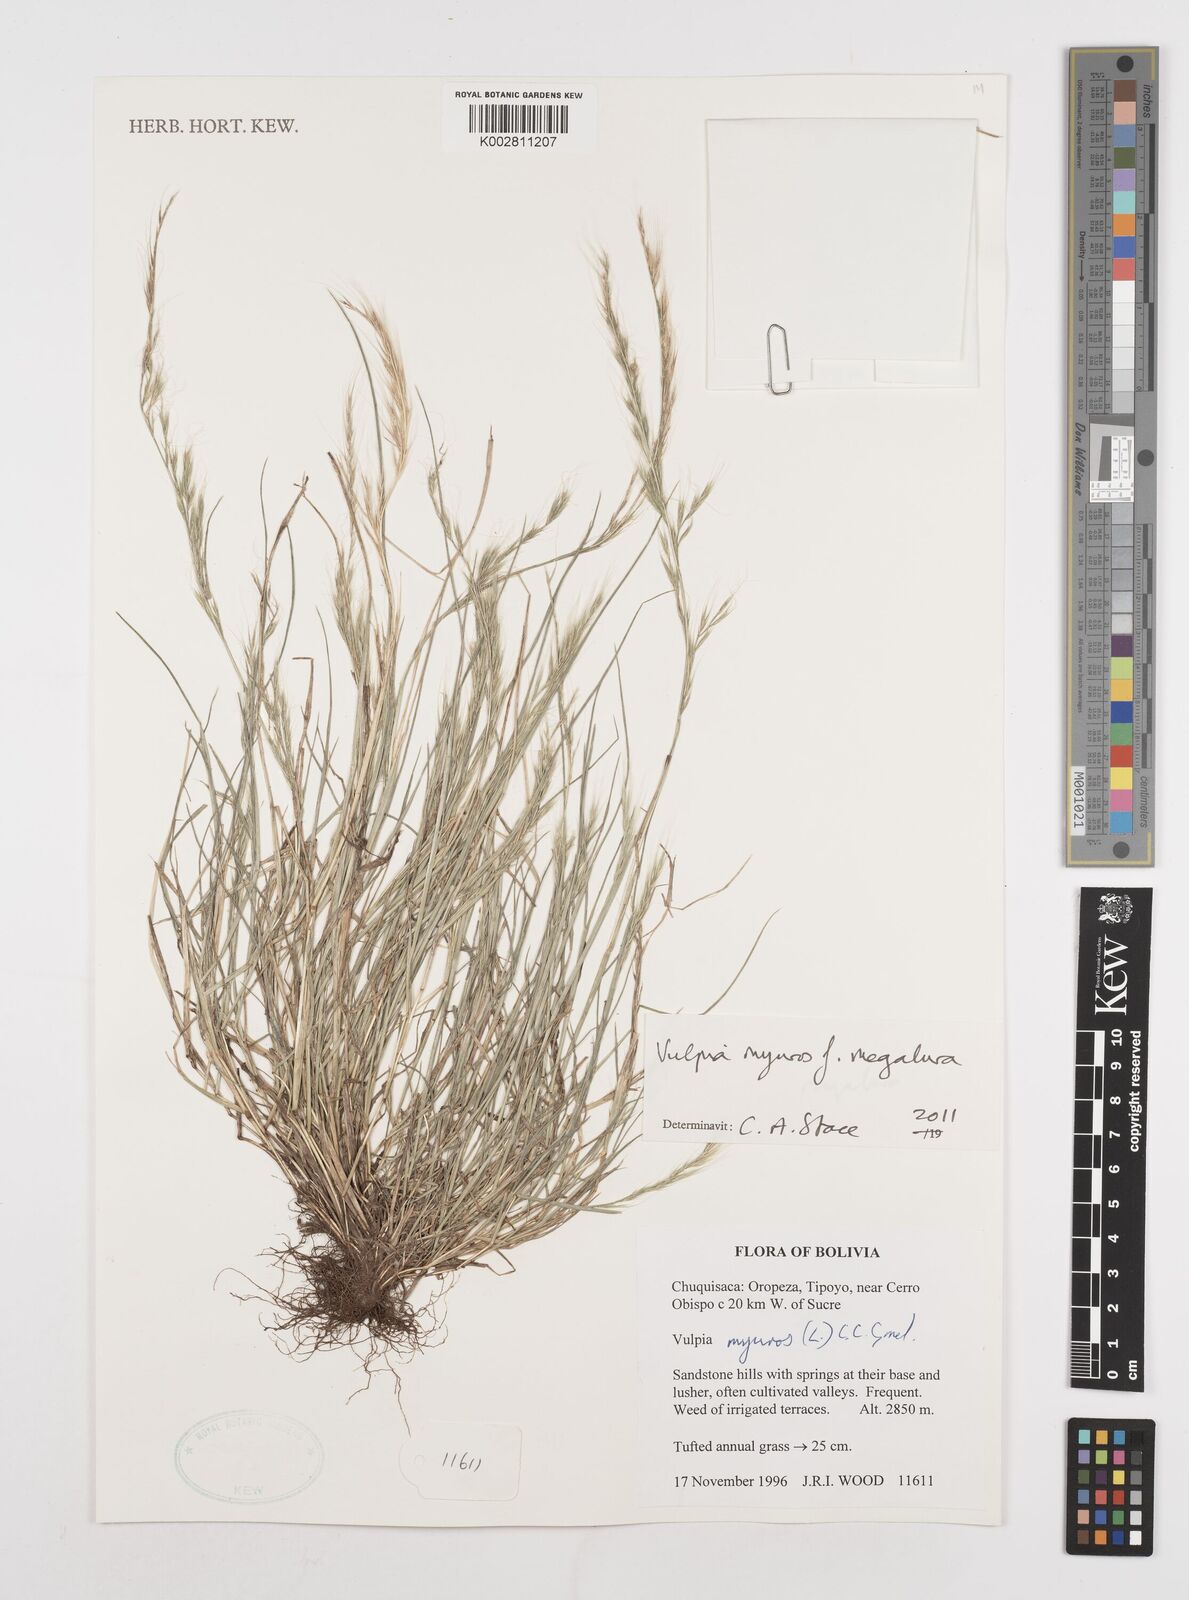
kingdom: Plantae
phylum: Tracheophyta
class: Liliopsida
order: Poales
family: Poaceae
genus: Festuca
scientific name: Festuca myuros
